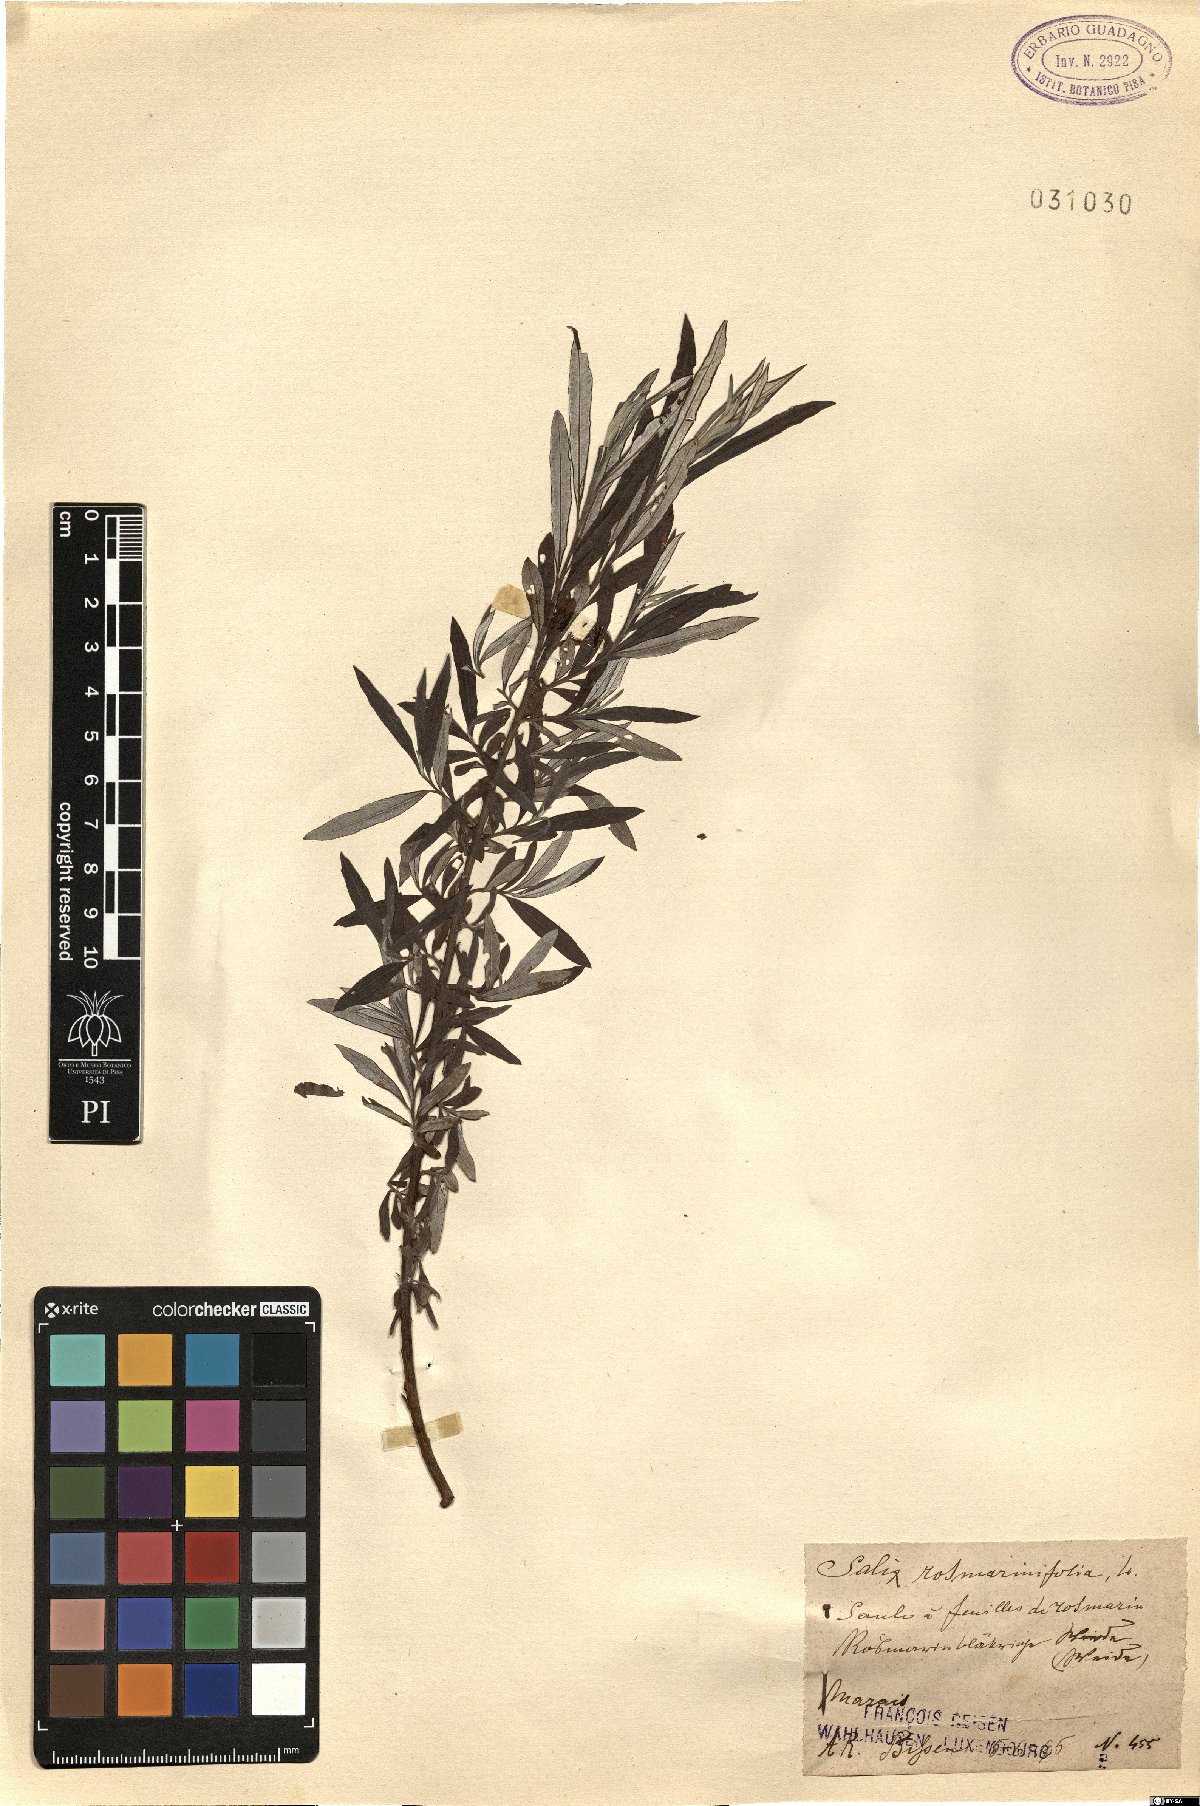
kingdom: Plantae
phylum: Tracheophyta
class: Magnoliopsida
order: Malpighiales
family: Salicaceae
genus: Salix
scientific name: Salix rosmarinifolia
